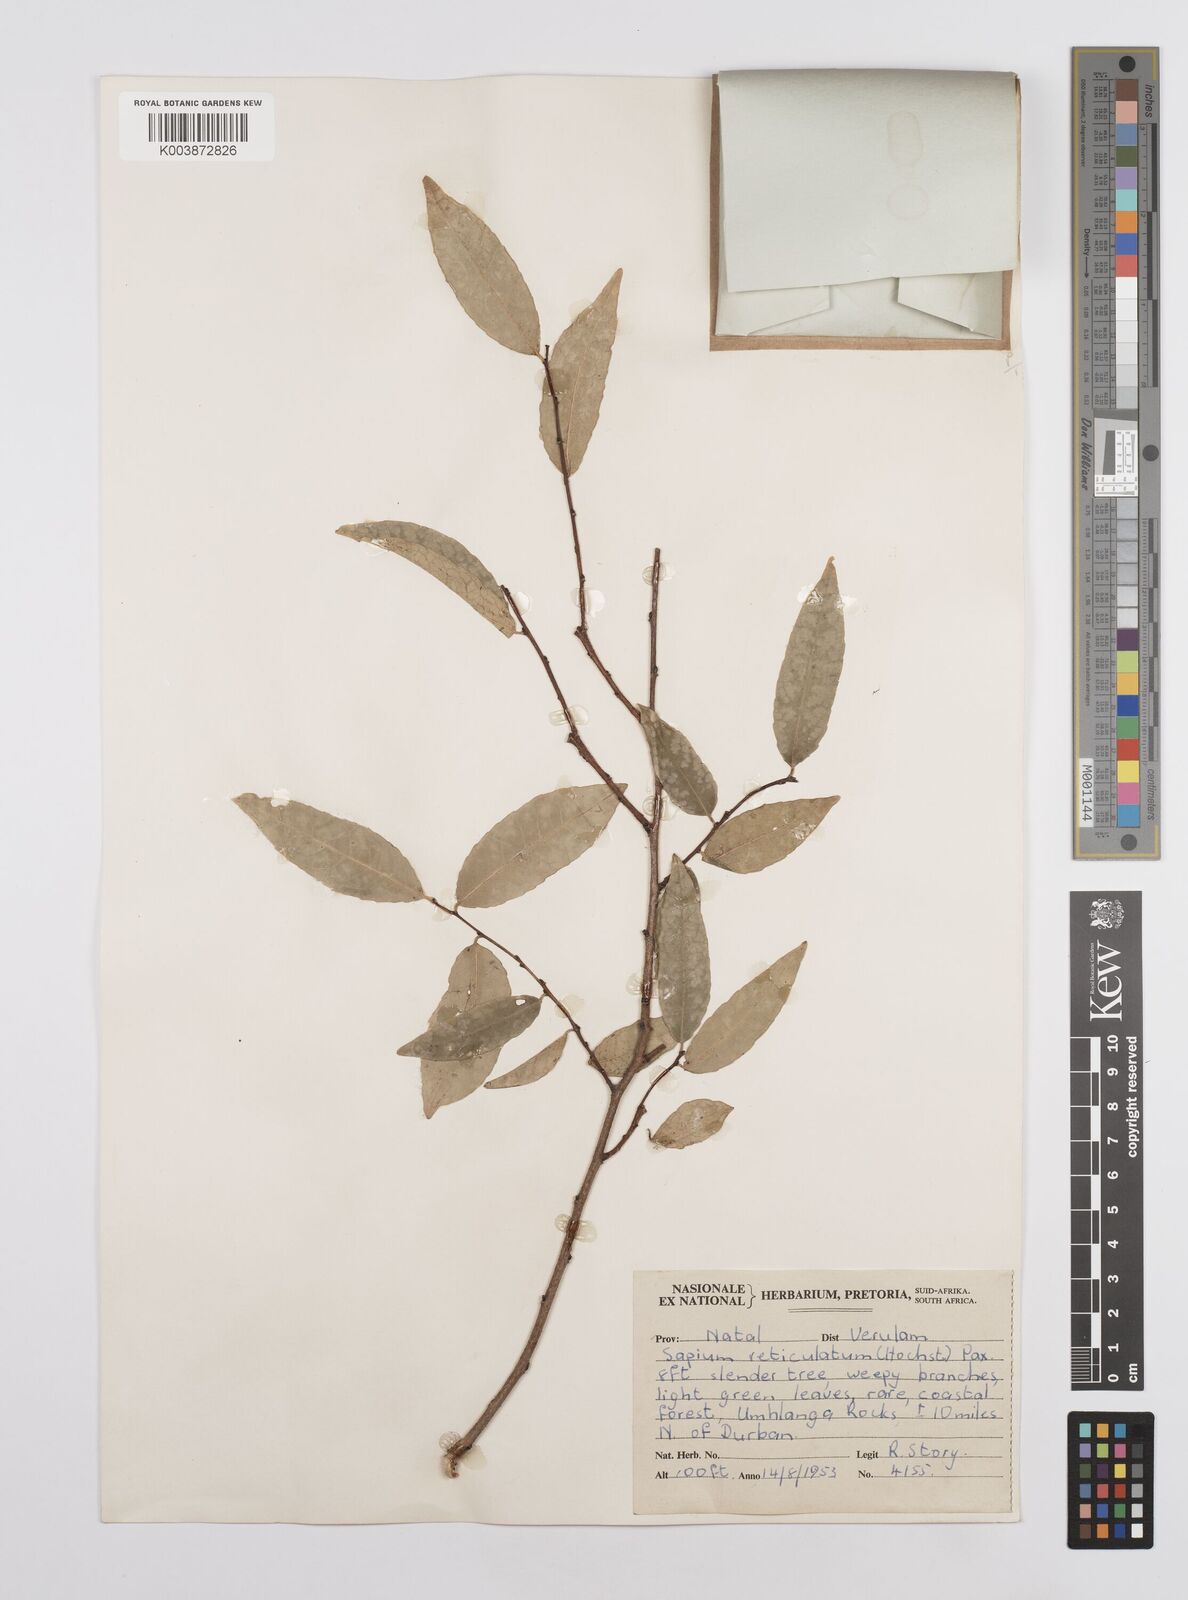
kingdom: Plantae
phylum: Tracheophyta
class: Magnoliopsida
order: Malpighiales
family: Euphorbiaceae
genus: Sclerocroton
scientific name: Sclerocroton integerrimus
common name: Duiker berry
